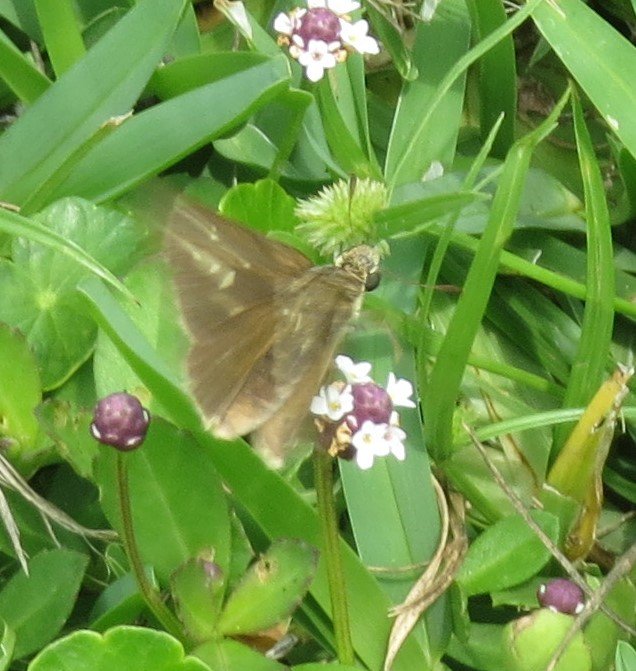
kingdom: Animalia
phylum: Arthropoda
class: Insecta
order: Lepidoptera
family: Hesperiidae
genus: Gesta
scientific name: Gesta
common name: Horace's Duskywing
